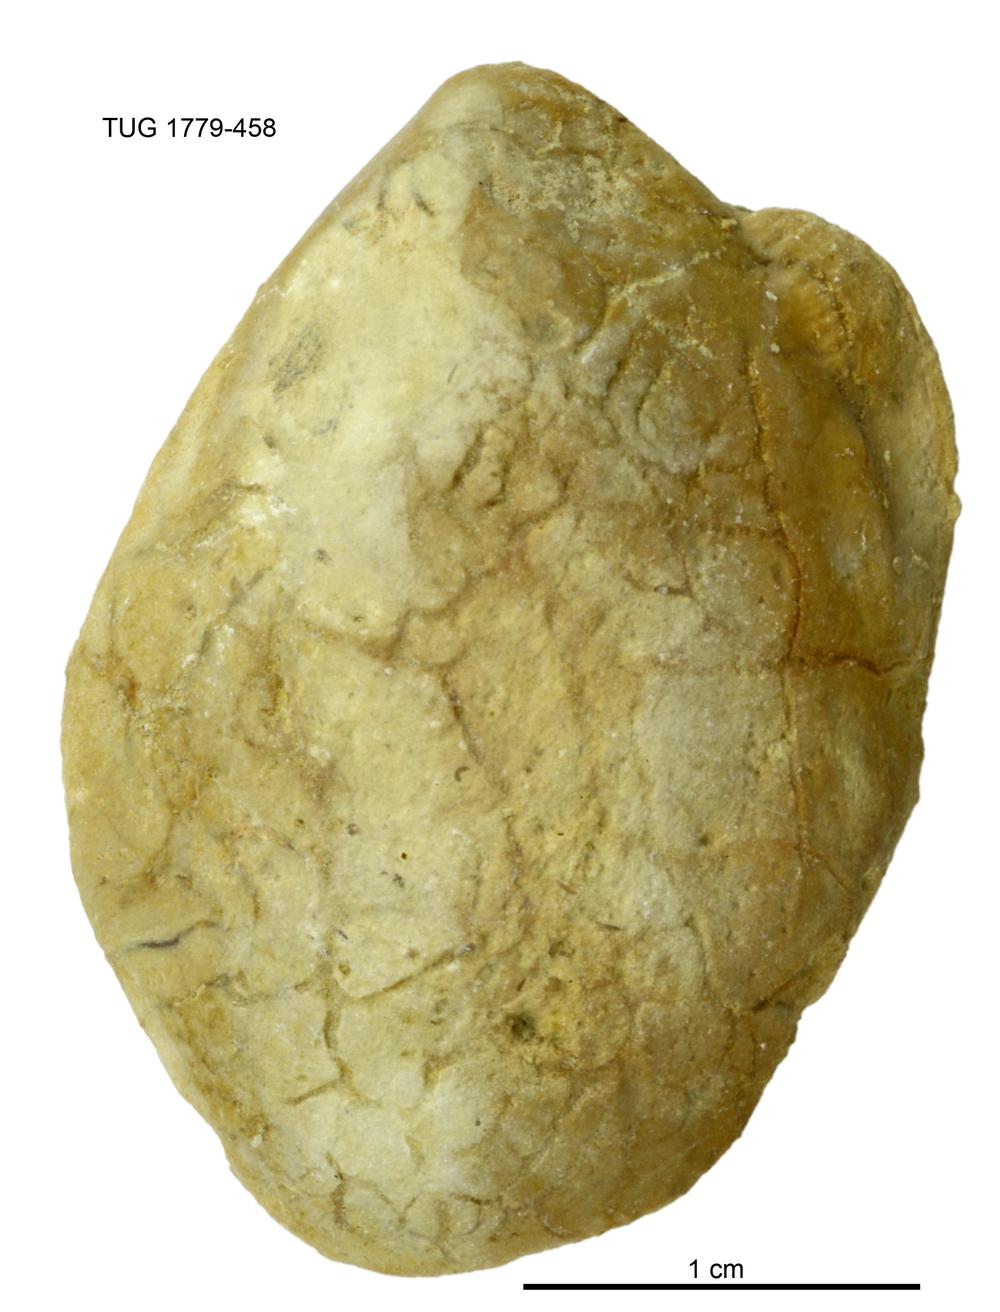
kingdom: Animalia
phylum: Mollusca
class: Bivalvia
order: Modiomorphida
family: Modiomorphidae
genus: Modiolopsis
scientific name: Modiolopsis
